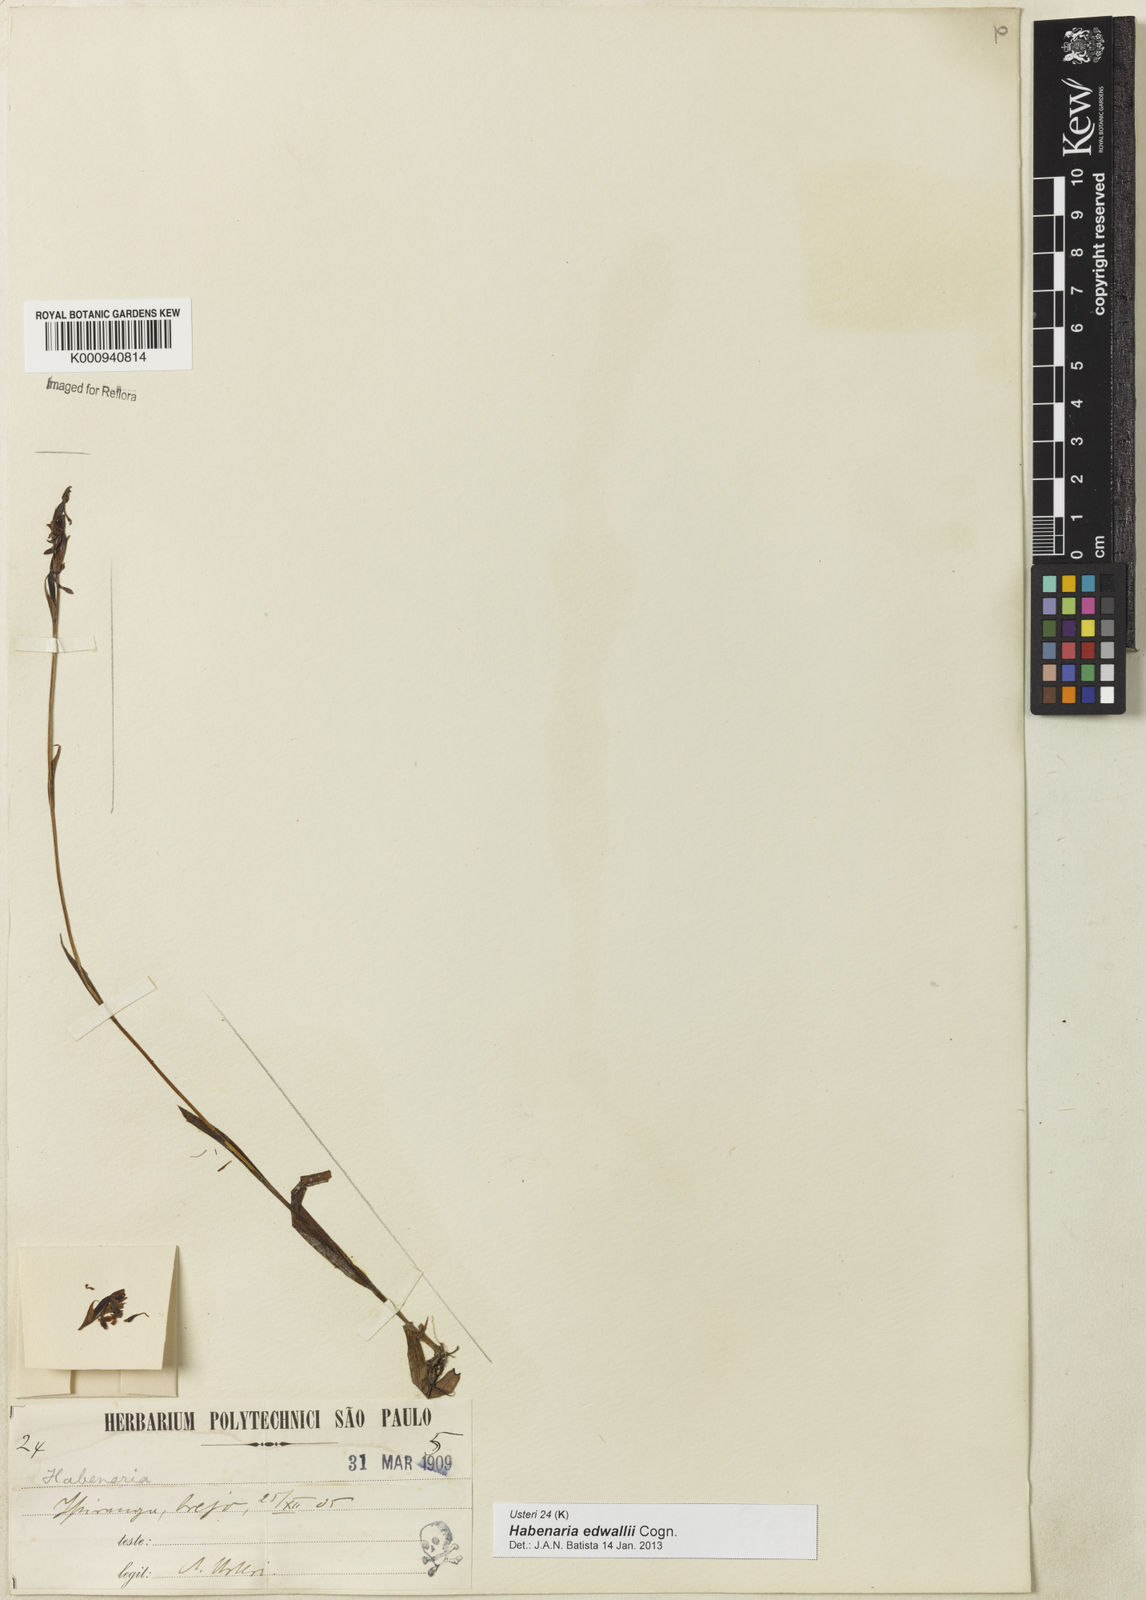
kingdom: Plantae
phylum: Tracheophyta
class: Liliopsida
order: Asparagales
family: Orchidaceae
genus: Habenaria
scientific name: Habenaria edwallii
